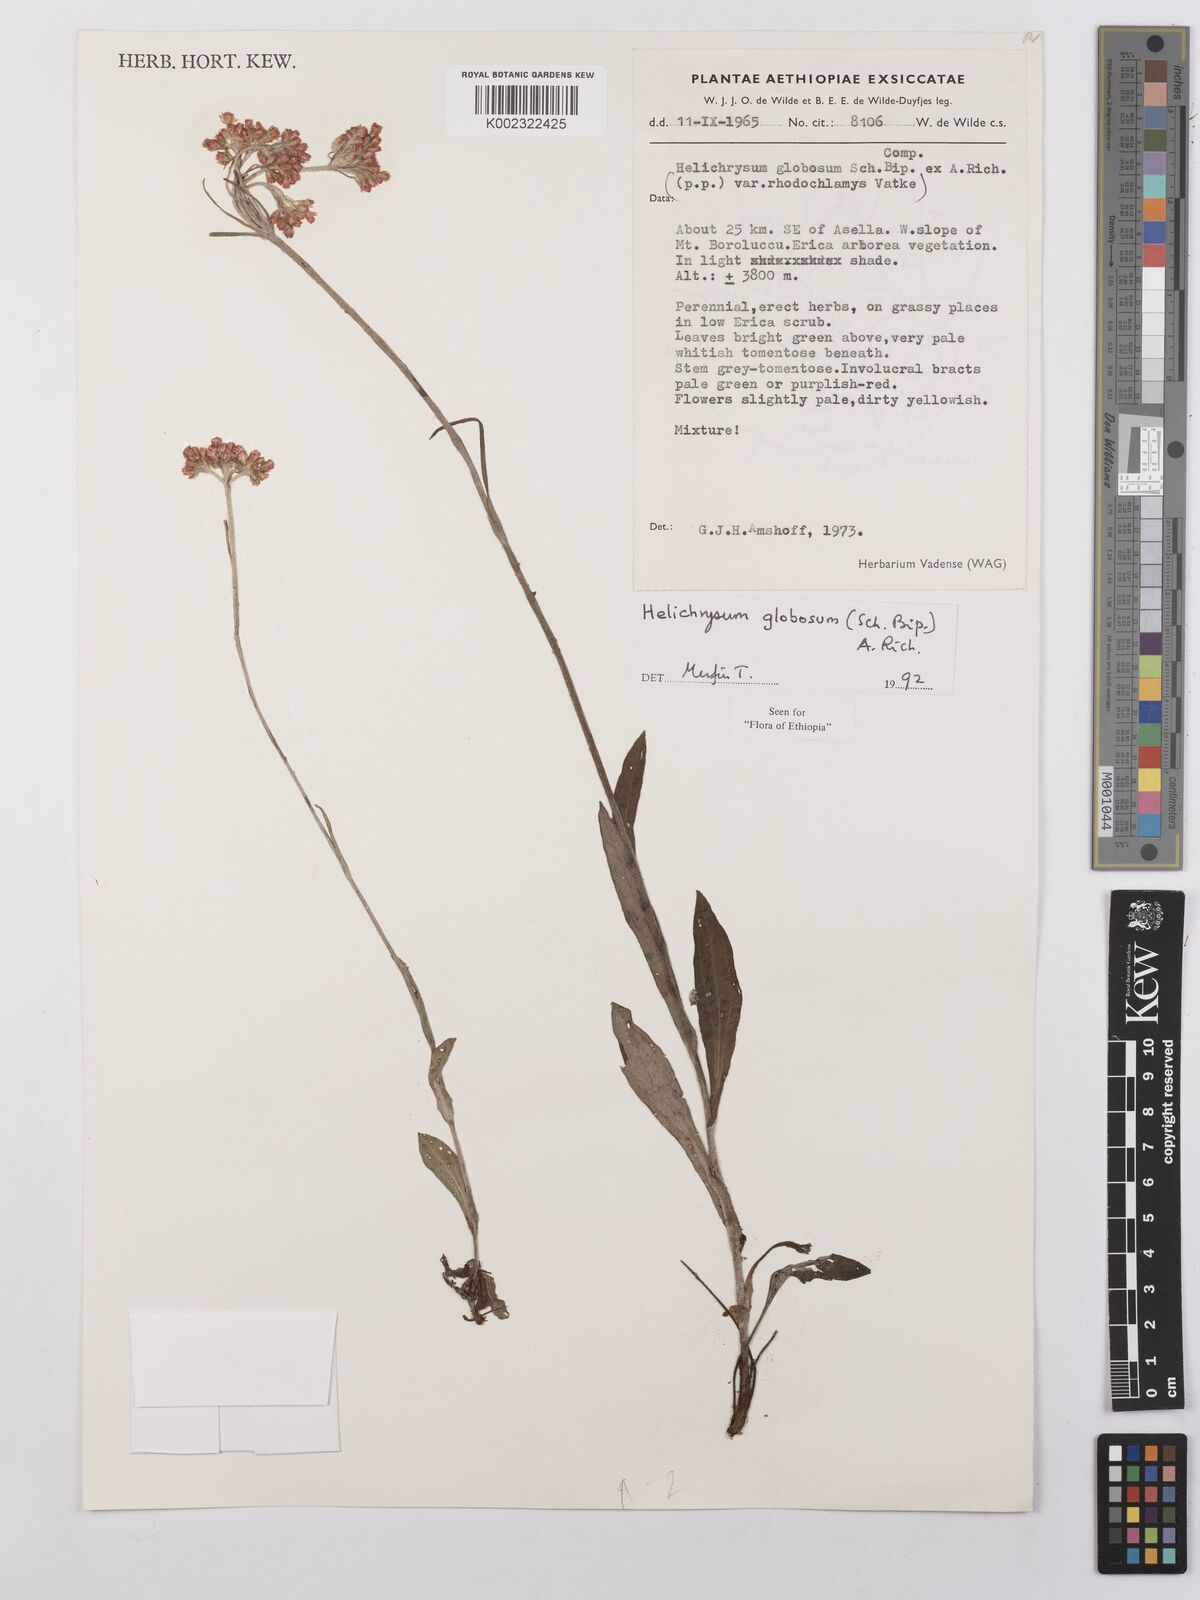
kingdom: Plantae
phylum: Tracheophyta
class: Magnoliopsida
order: Asterales
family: Asteraceae
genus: Helichrysum
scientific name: Helichrysum globosum
